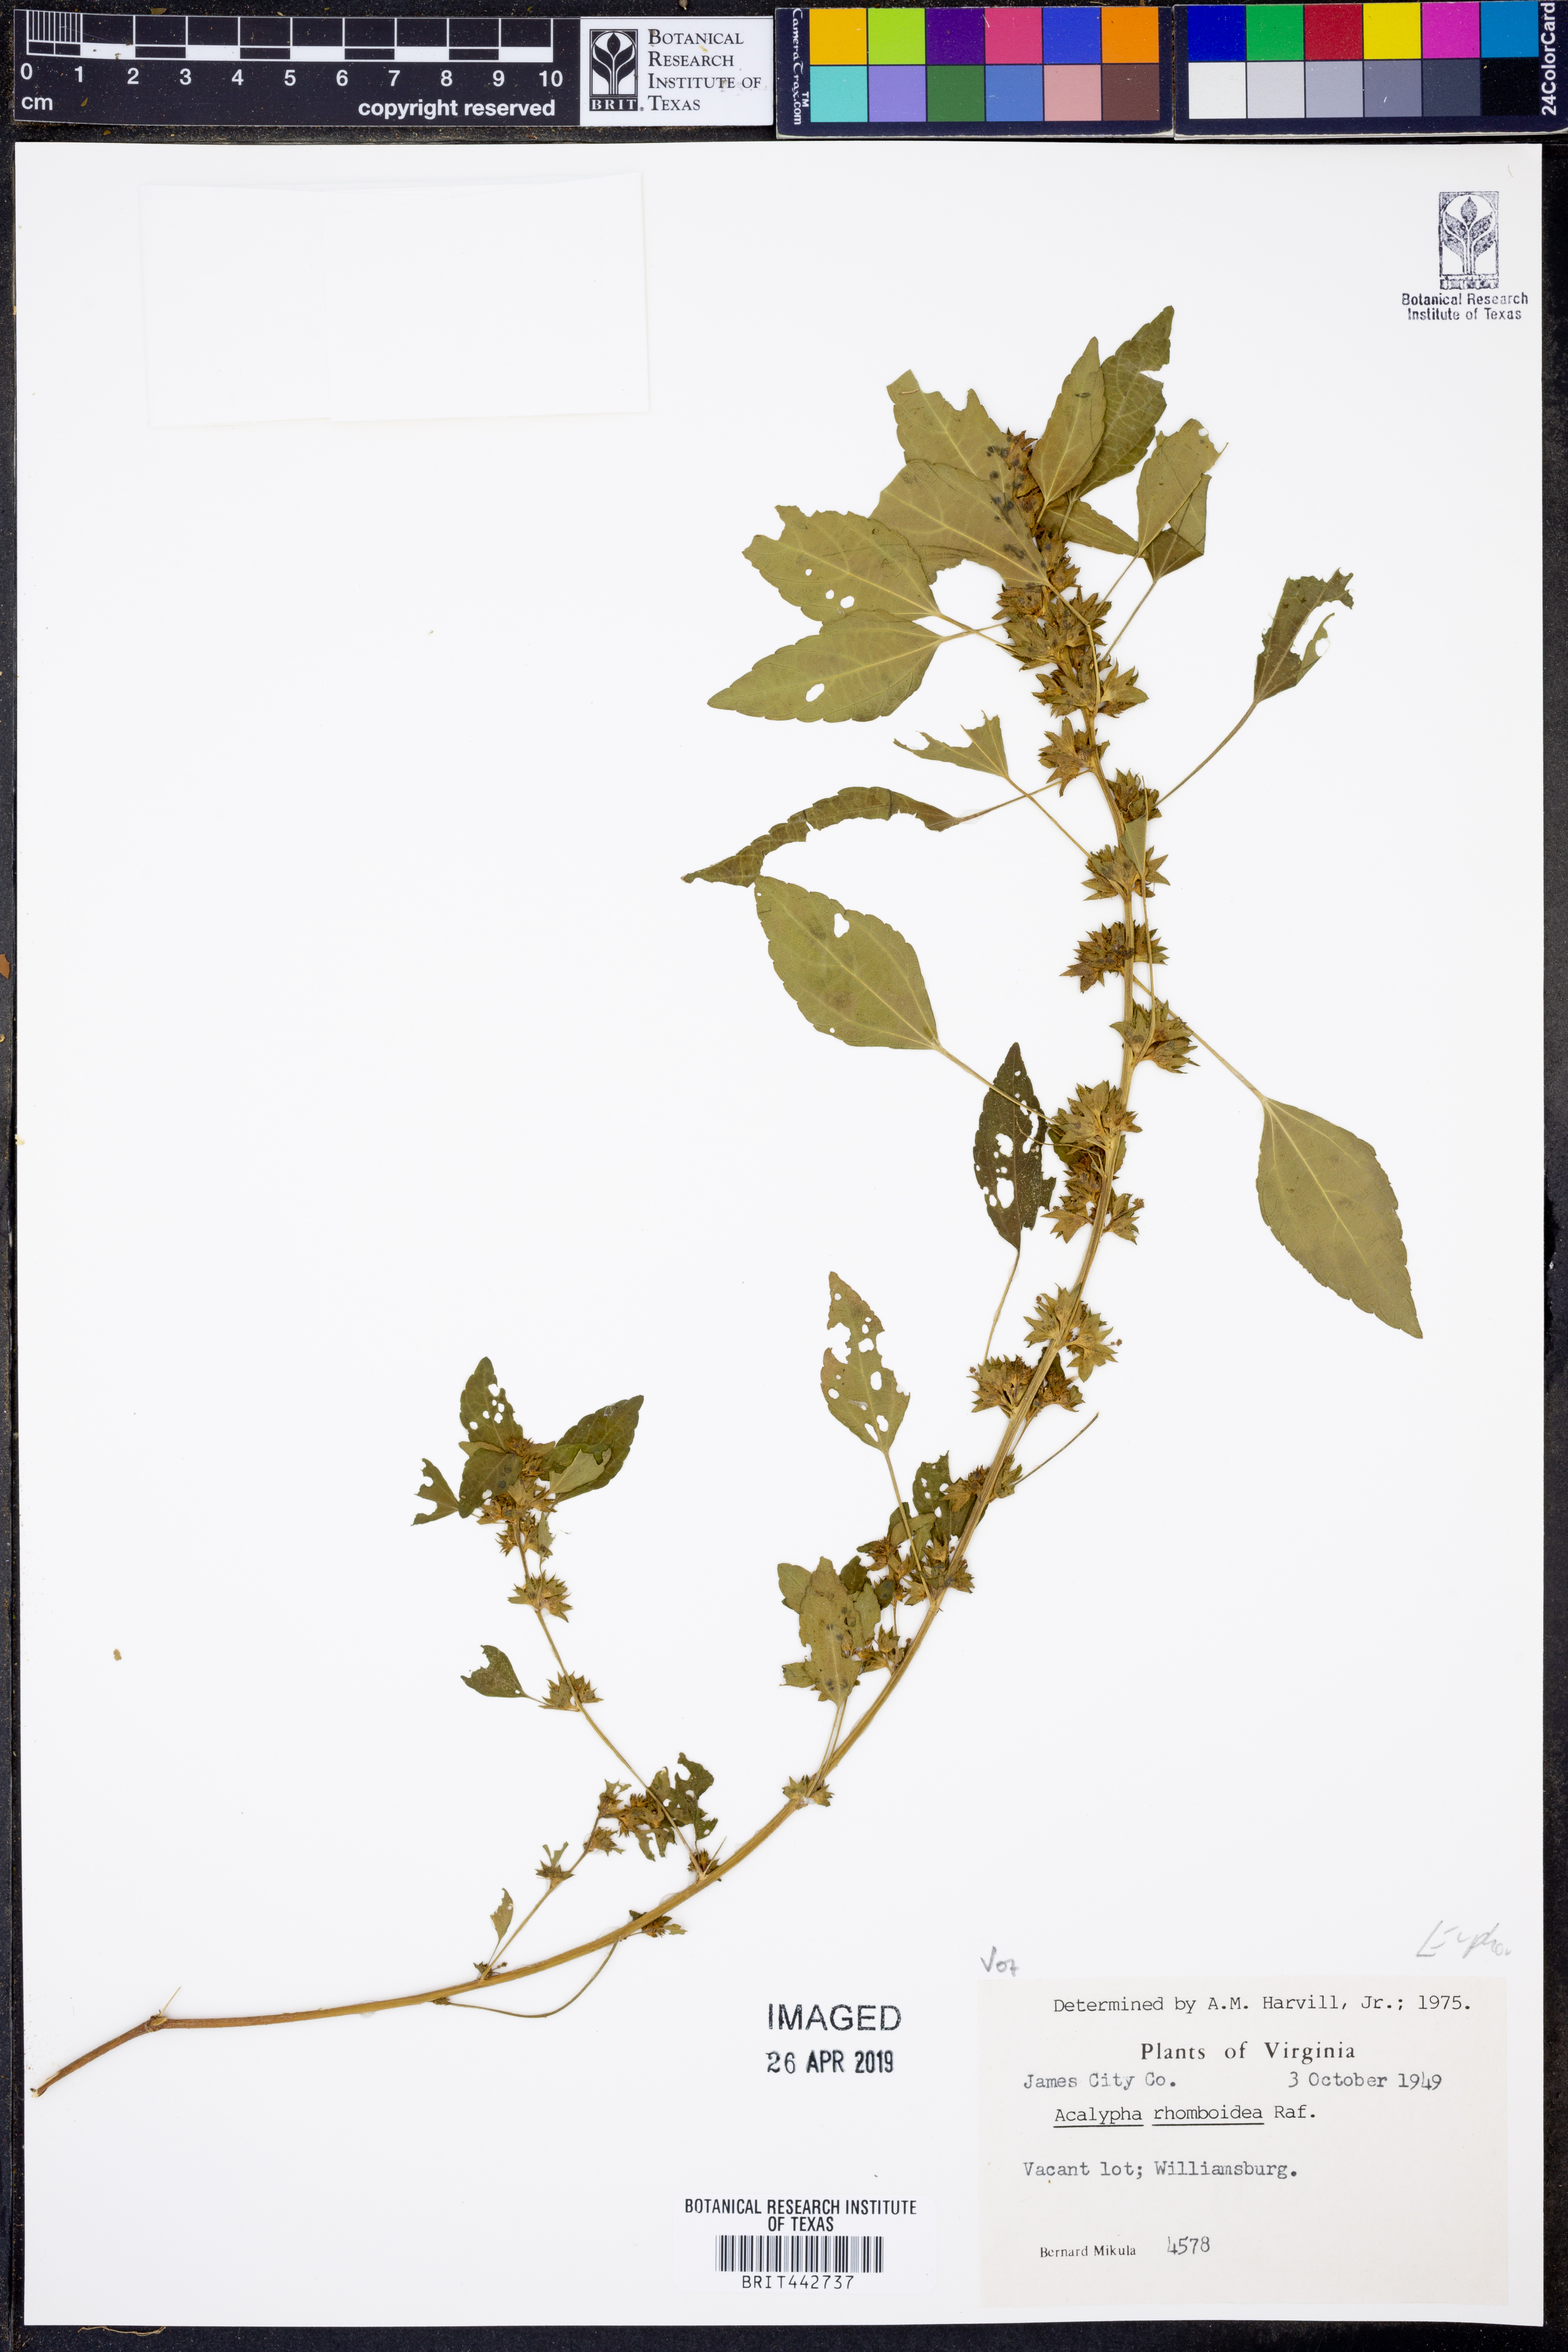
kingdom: Plantae
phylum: Tracheophyta
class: Magnoliopsida
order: Malpighiales
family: Euphorbiaceae
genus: Acalypha
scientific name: Acalypha rhomboidea
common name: Rhombic copperleaf
